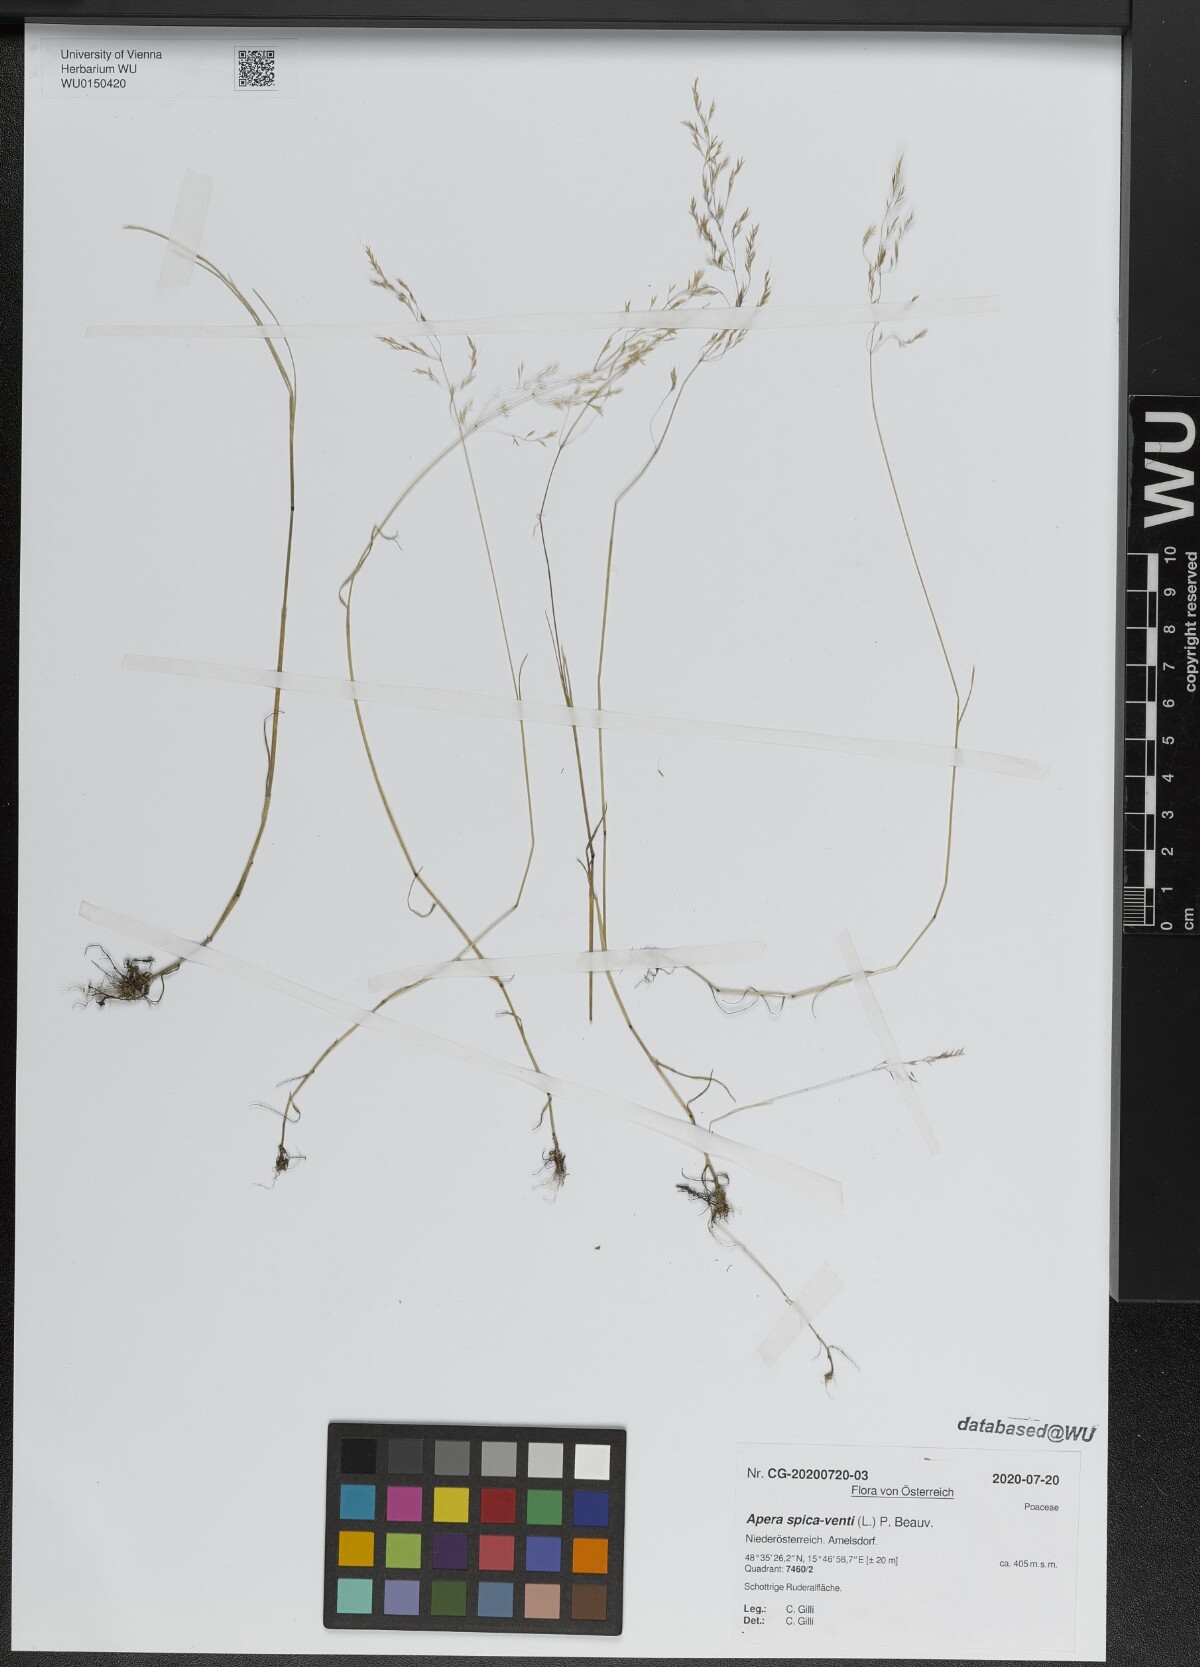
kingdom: Plantae
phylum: Tracheophyta
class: Liliopsida
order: Poales
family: Poaceae
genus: Apera
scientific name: Apera spica-venti
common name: Loose silky-bent
